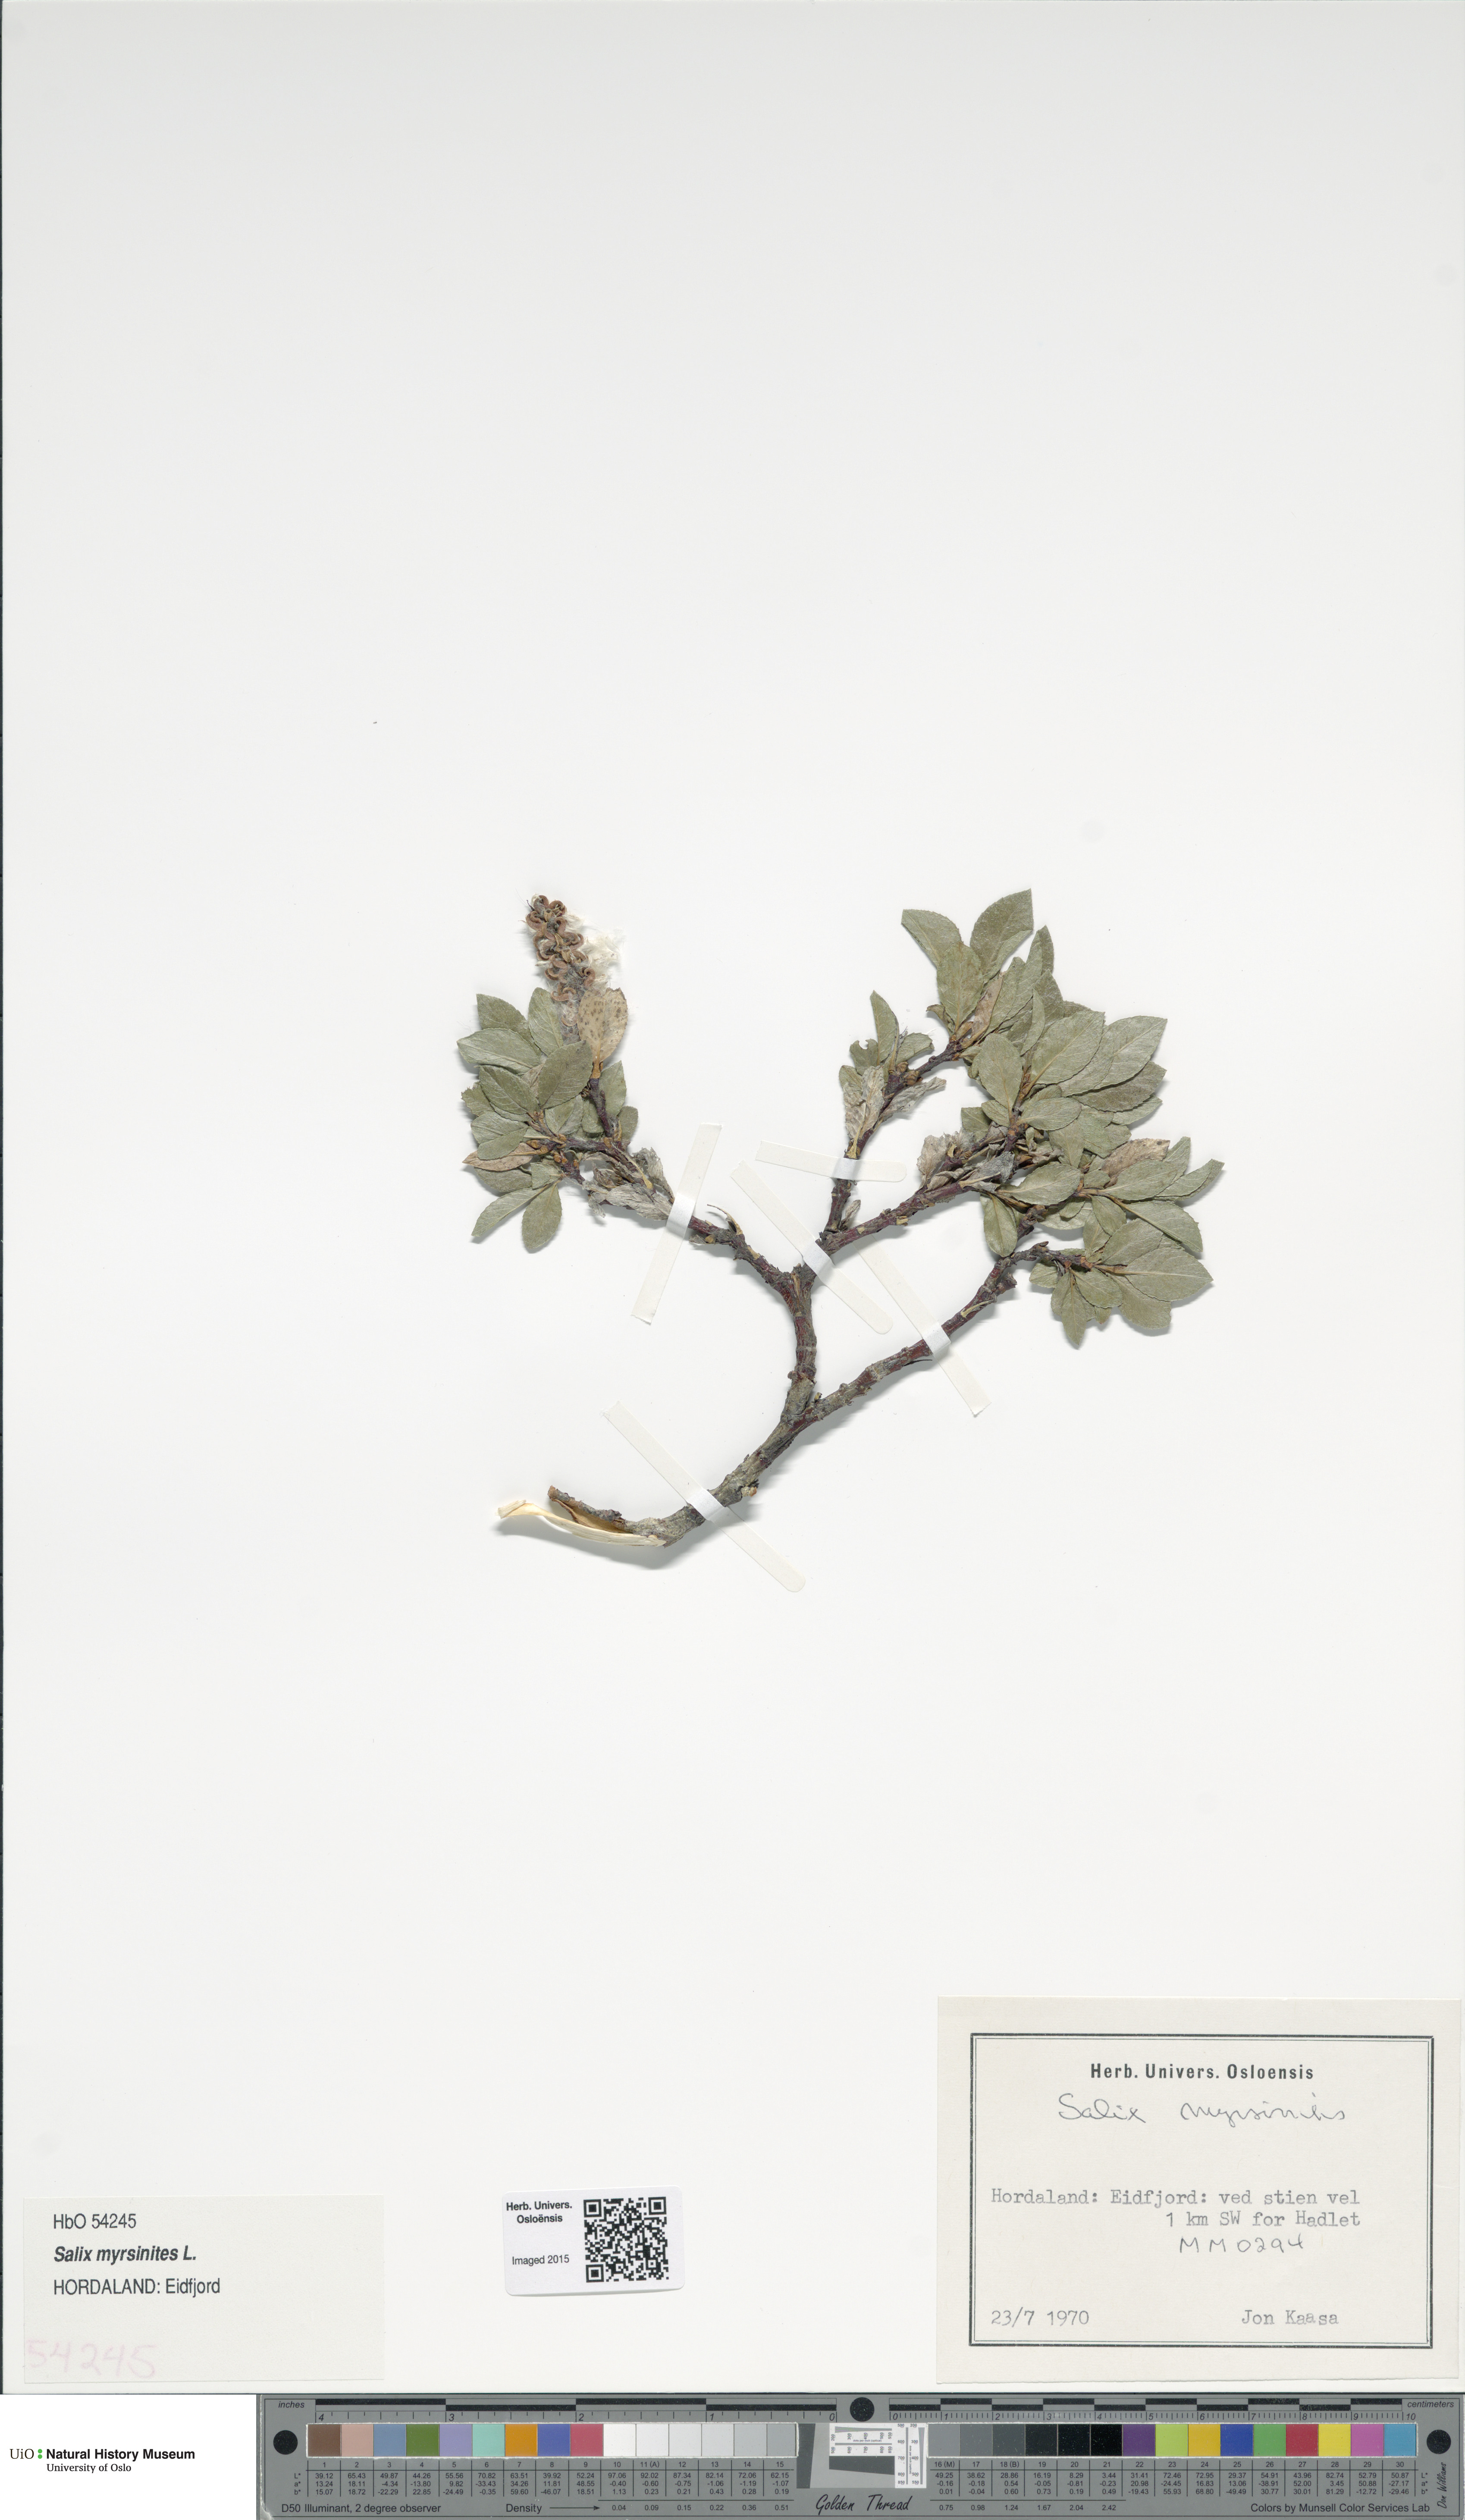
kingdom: Plantae
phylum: Tracheophyta
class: Magnoliopsida
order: Malpighiales
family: Salicaceae
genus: Salix
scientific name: Salix myrsinites
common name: Myrtle willow
